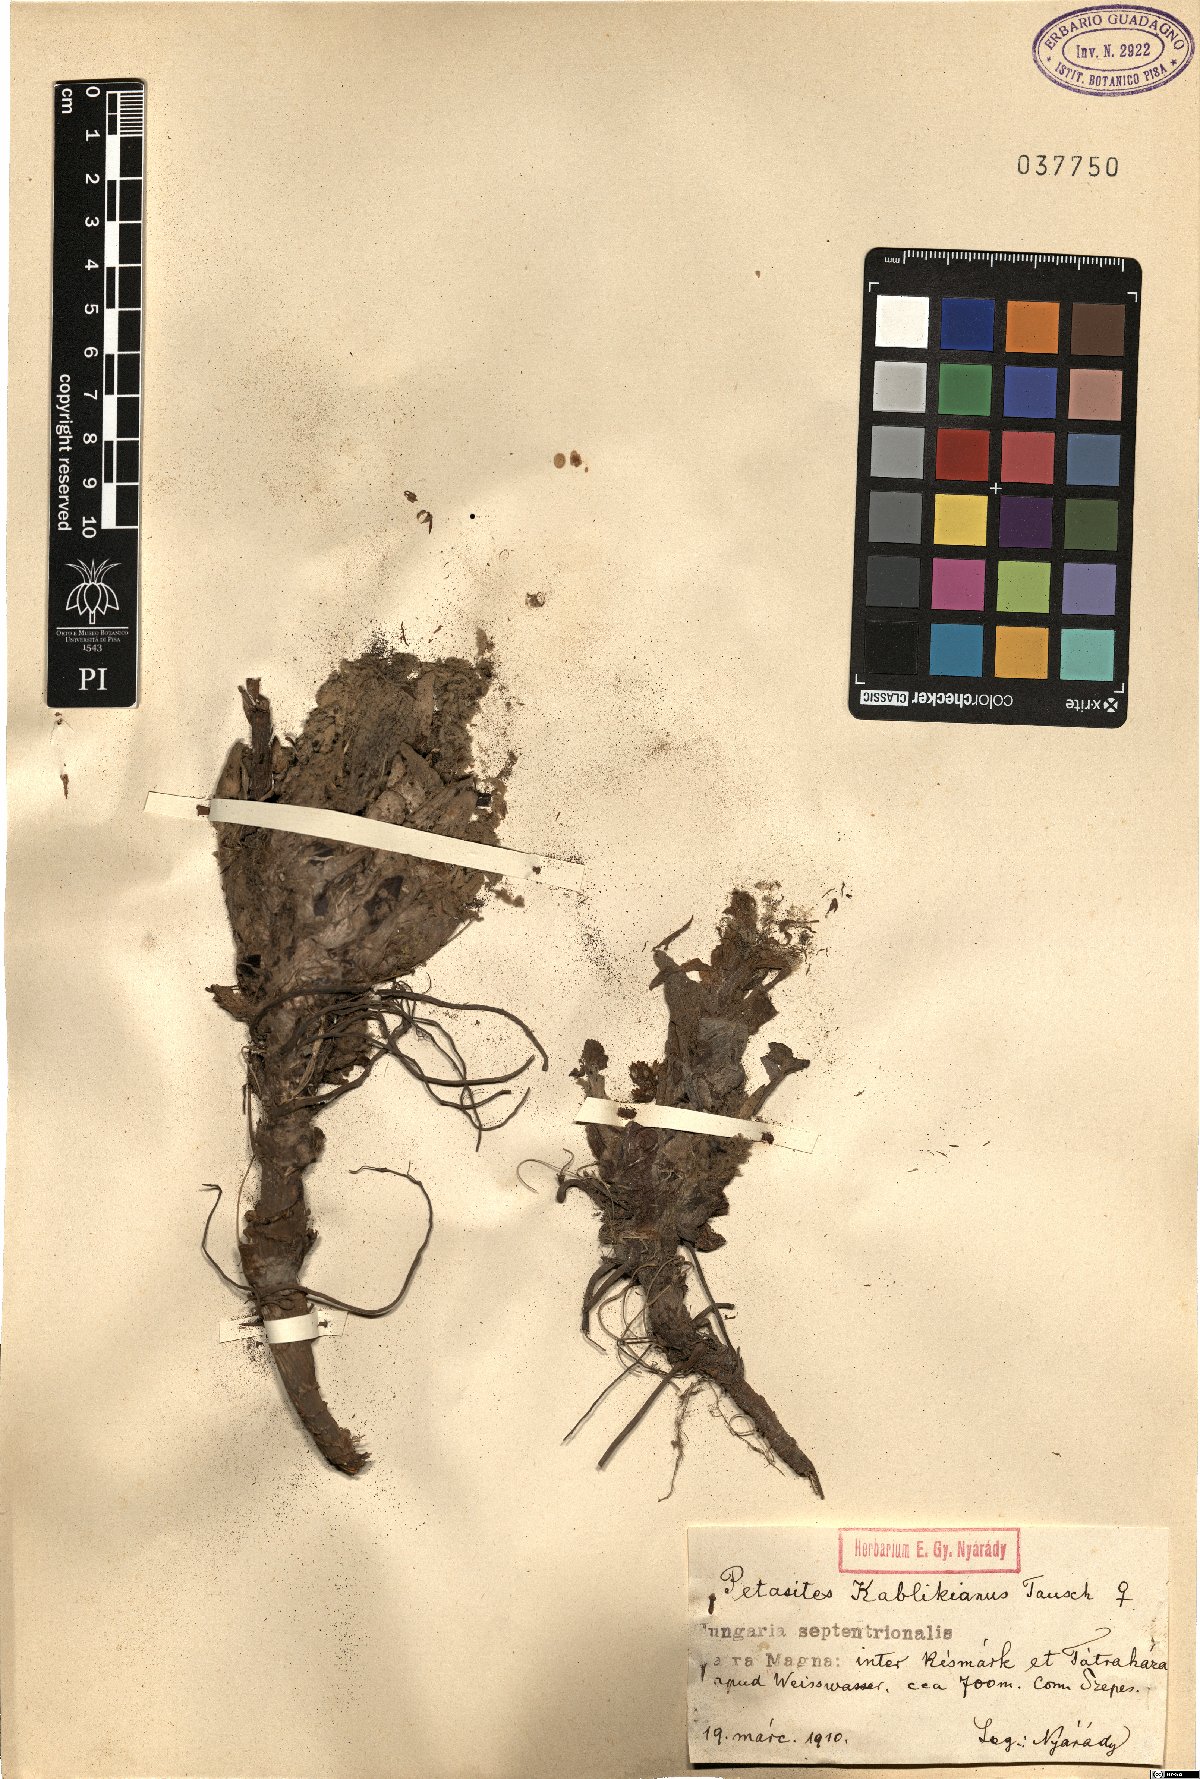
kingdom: Plantae
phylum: Tracheophyta
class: Magnoliopsida
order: Asterales
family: Asteraceae
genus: Petasites
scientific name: Petasites kablikianus
